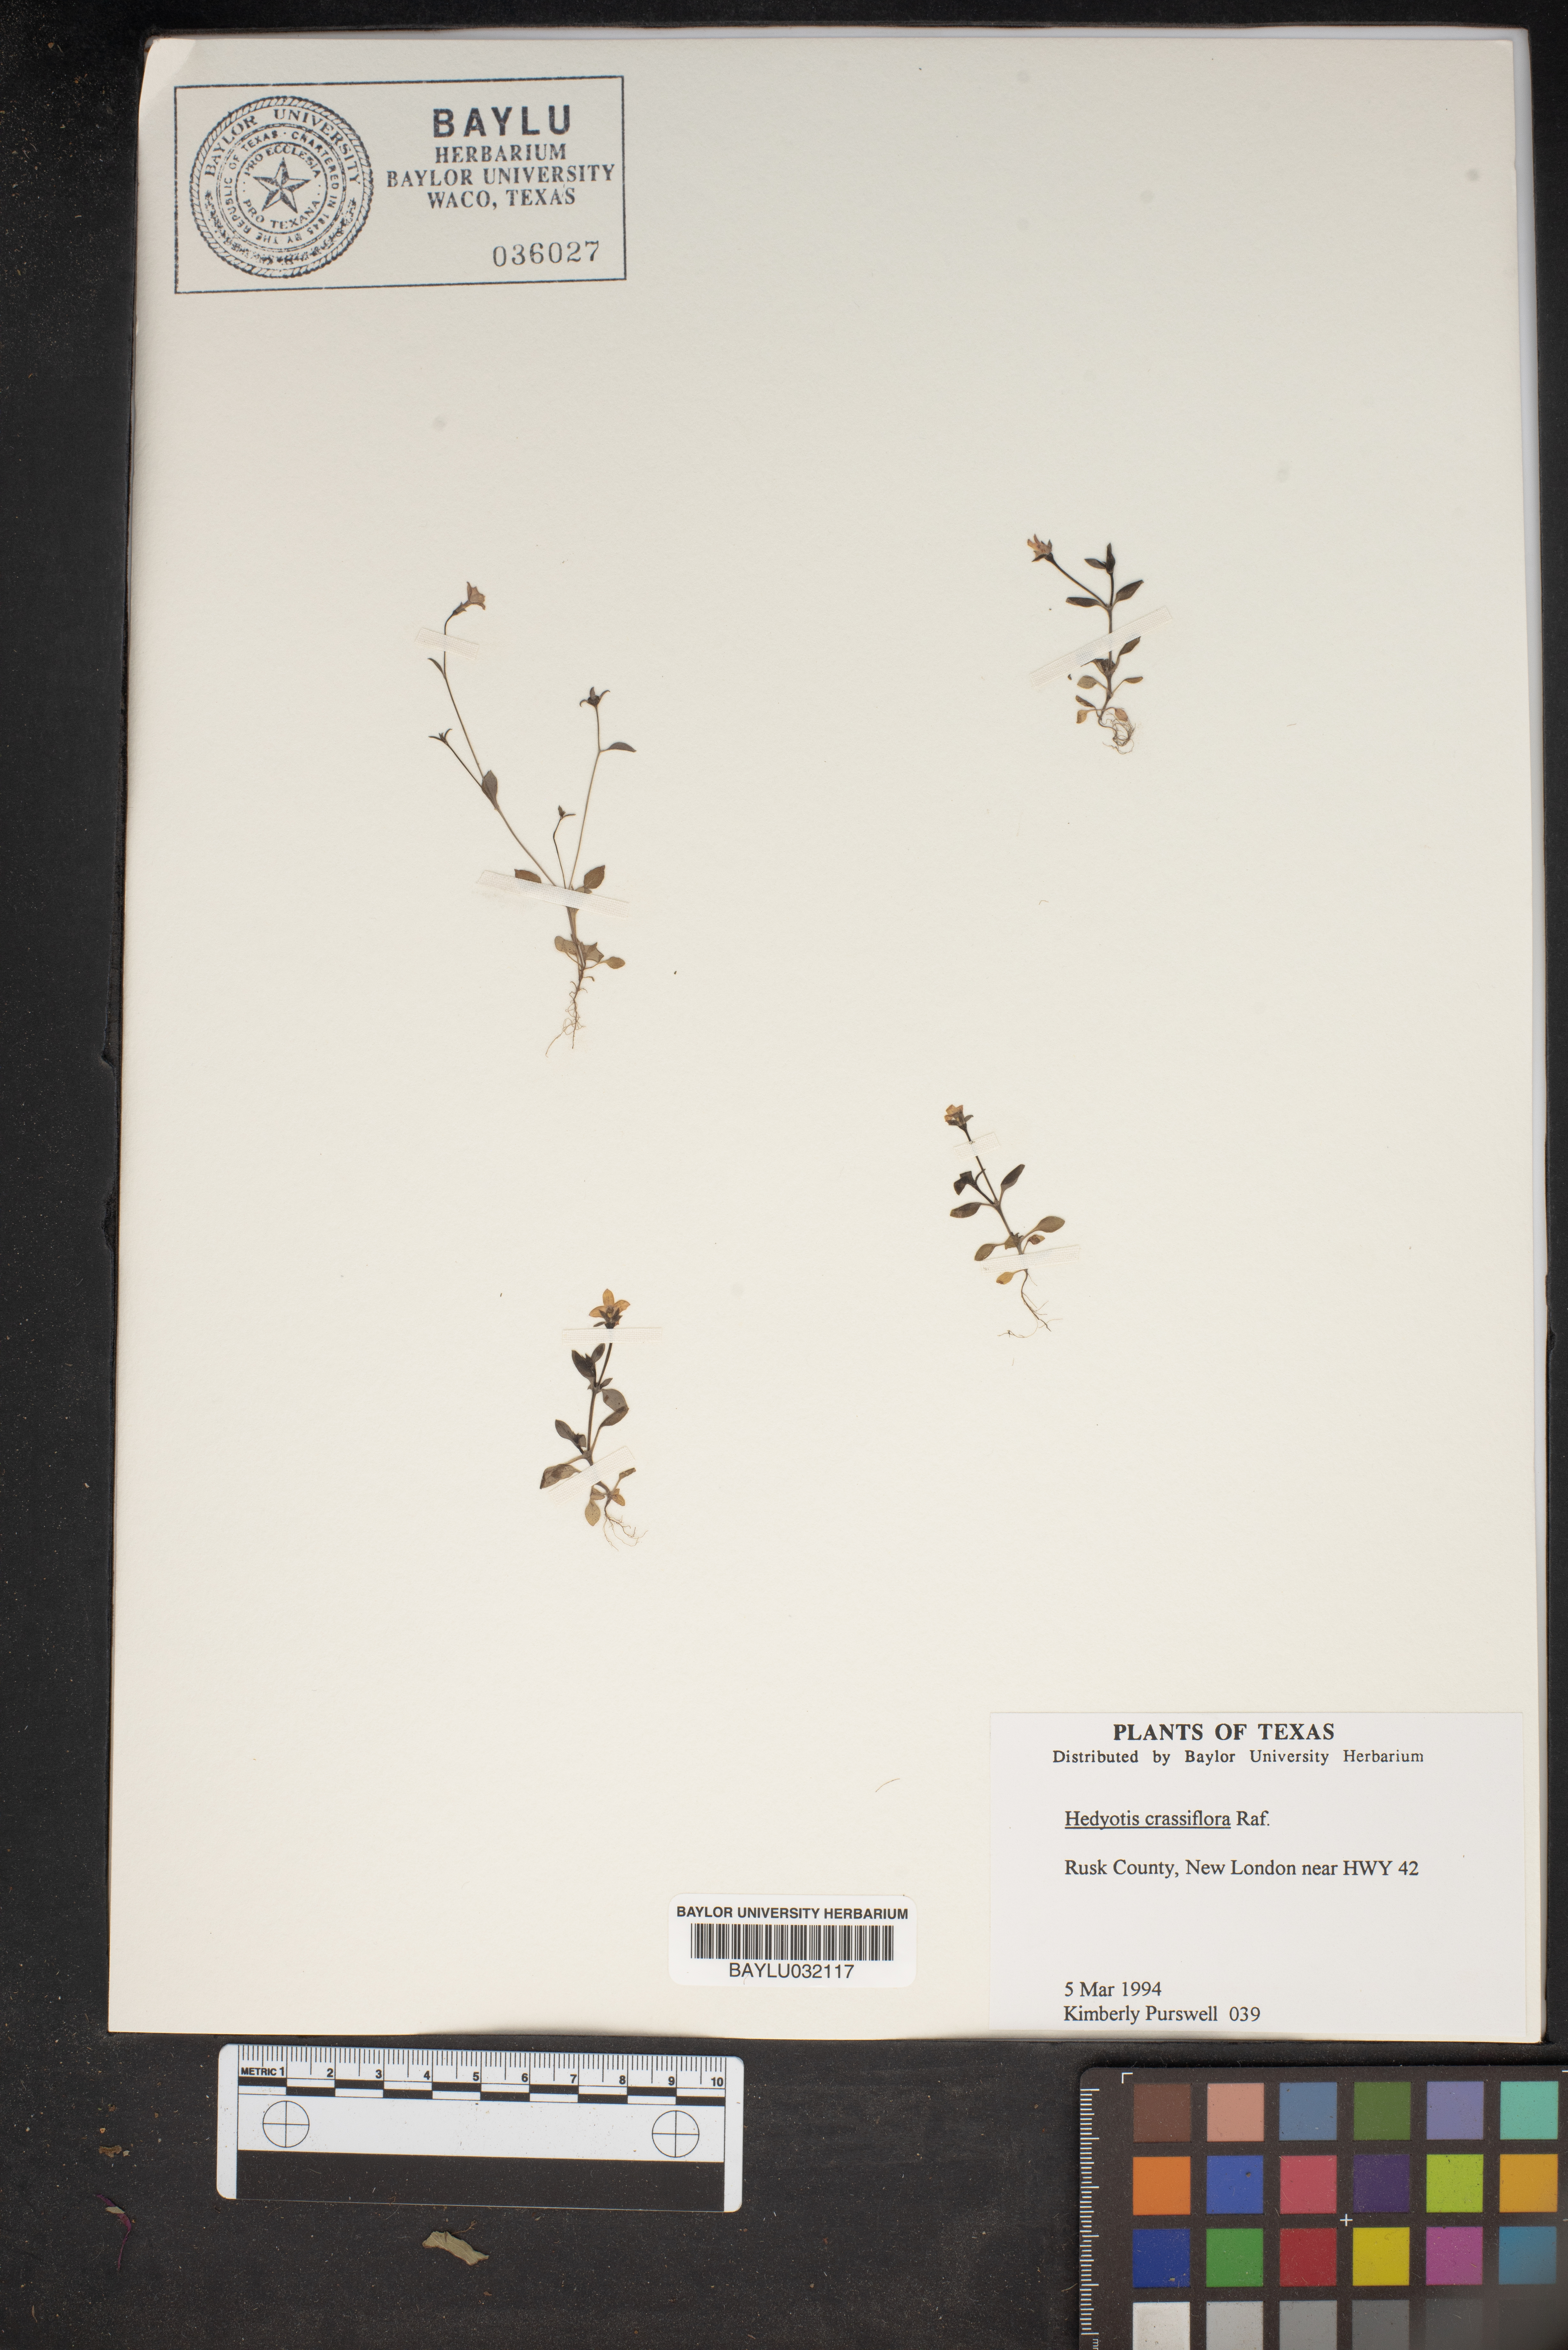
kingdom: Plantae
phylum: Tracheophyta
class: Magnoliopsida
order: Gentianales
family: Rubiaceae
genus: Houstonia
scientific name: Houstonia pusilla
